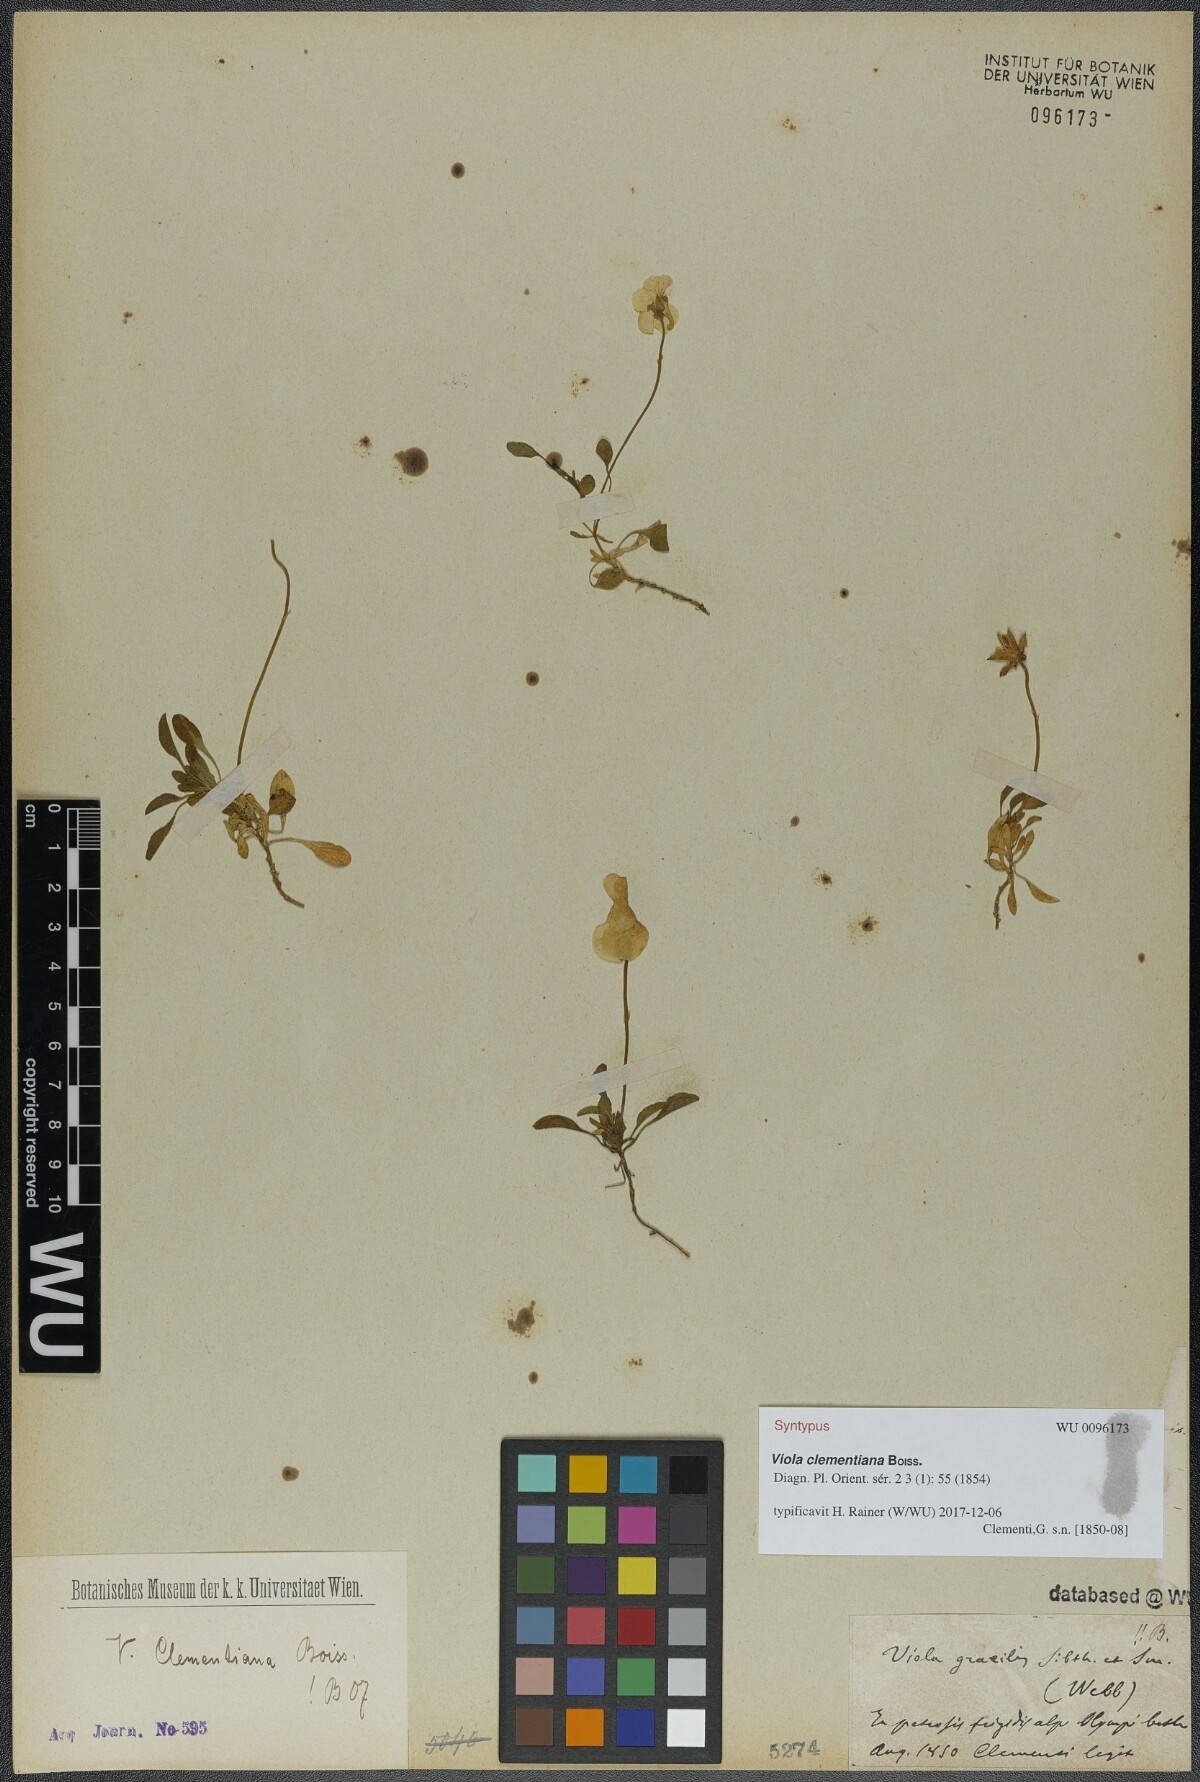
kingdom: Plantae
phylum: Tracheophyta
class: Magnoliopsida
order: Malpighiales
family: Violaceae
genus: Viola
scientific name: Viola clementiana
